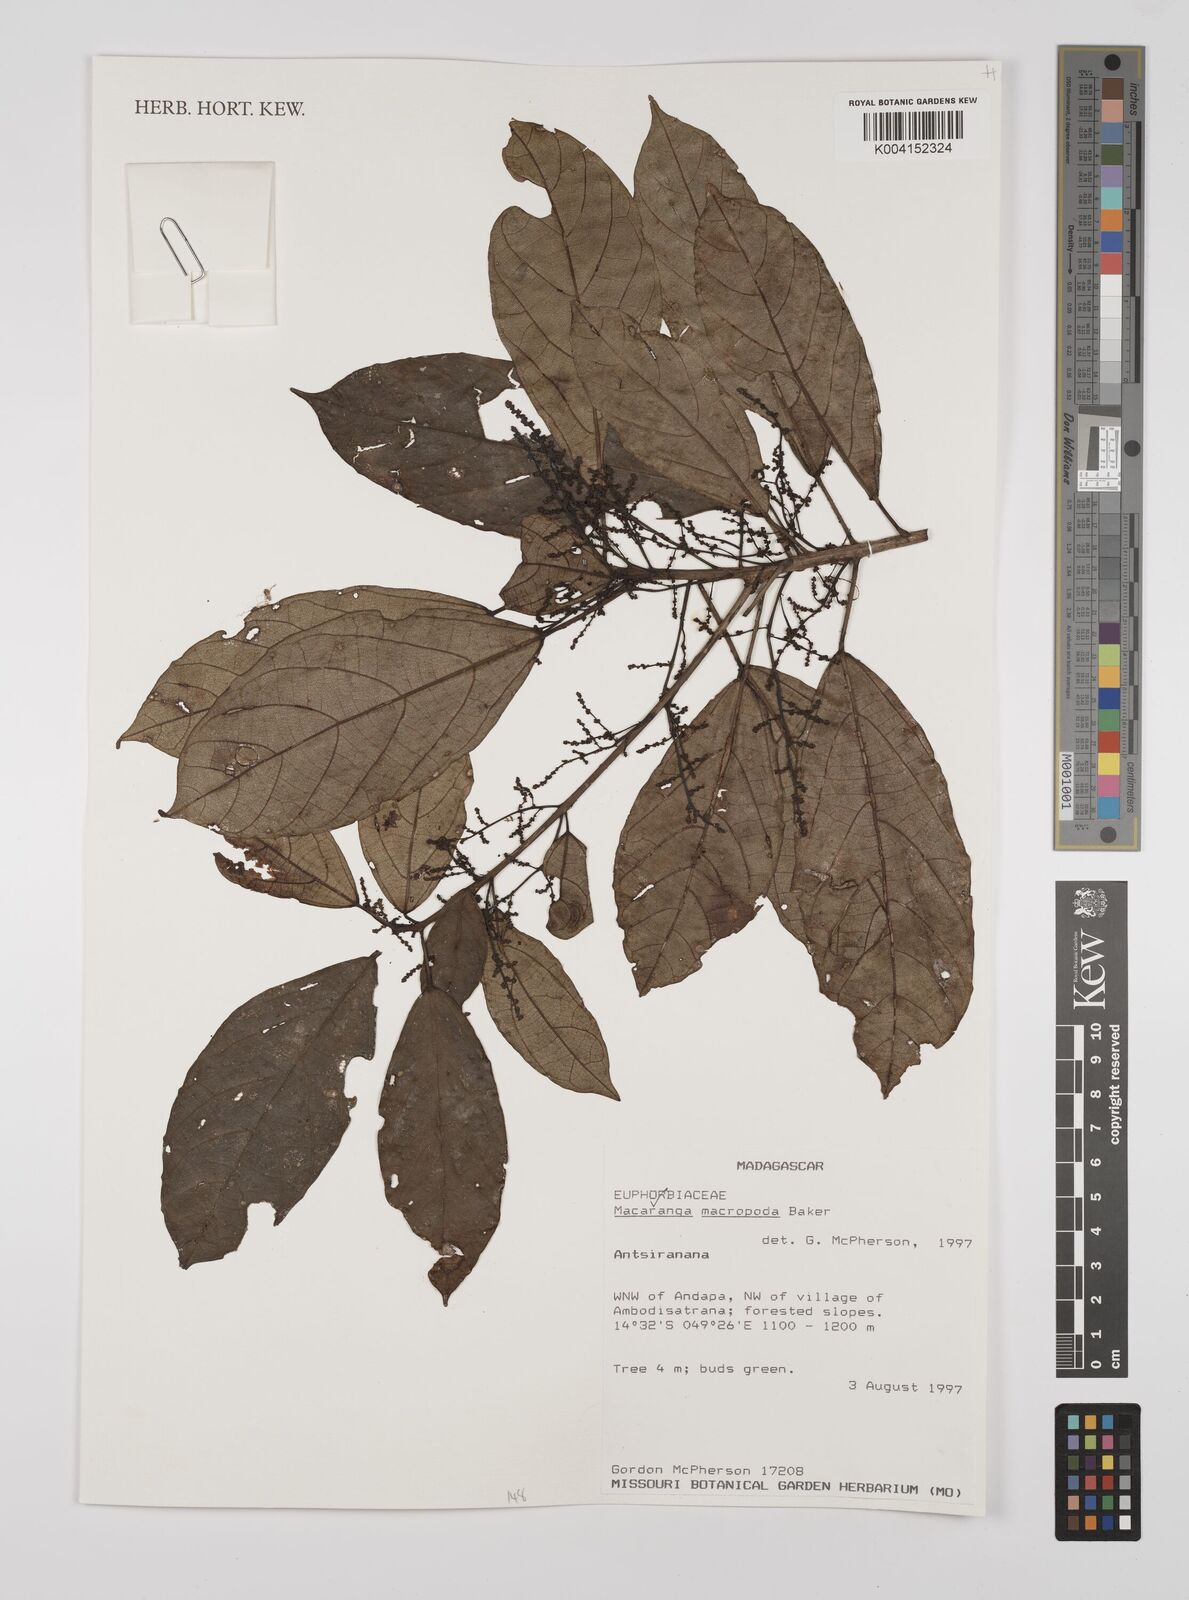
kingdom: Plantae
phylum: Tracheophyta
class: Magnoliopsida
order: Malpighiales
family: Euphorbiaceae
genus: Macaranga
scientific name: Macaranga macropoda
